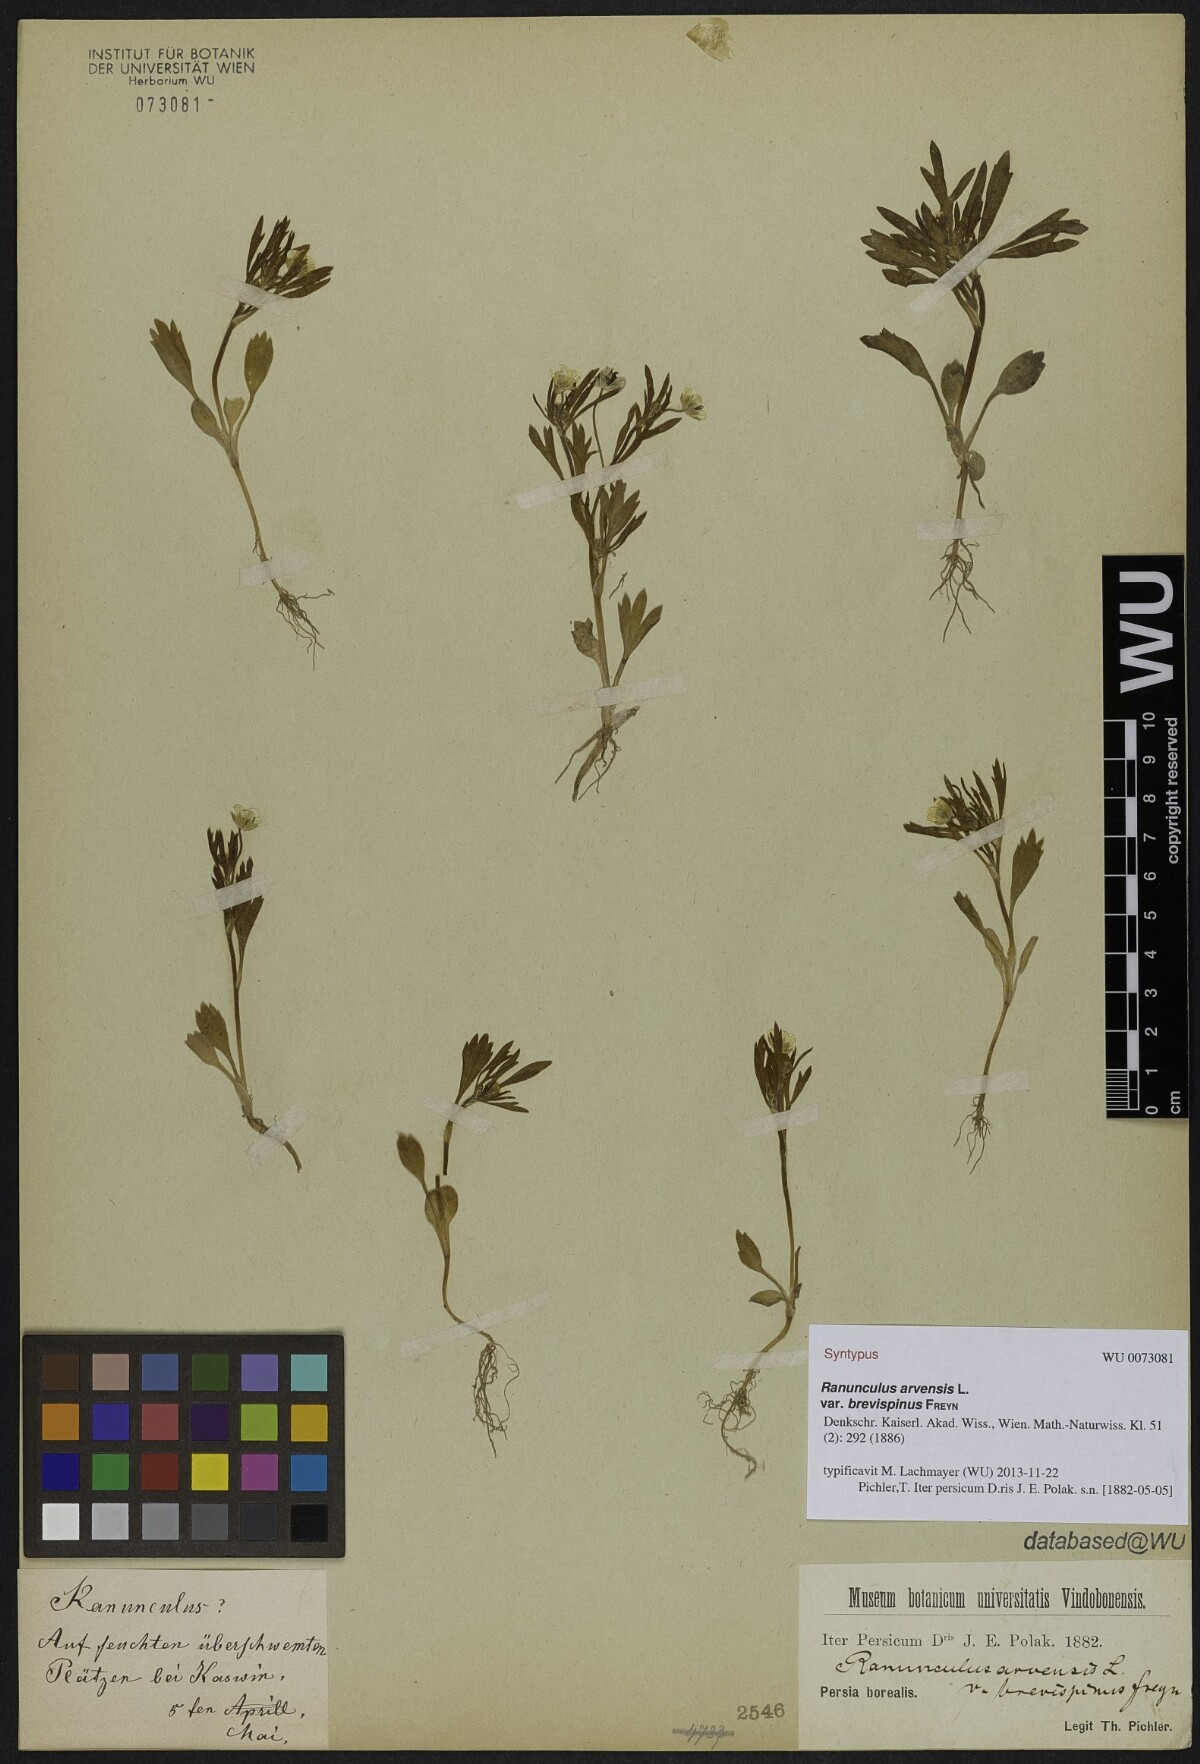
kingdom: Plantae
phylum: Tracheophyta
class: Magnoliopsida
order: Ranunculales
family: Ranunculaceae
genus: Ranunculus
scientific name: Ranunculus arvensis
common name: Corn buttercup
